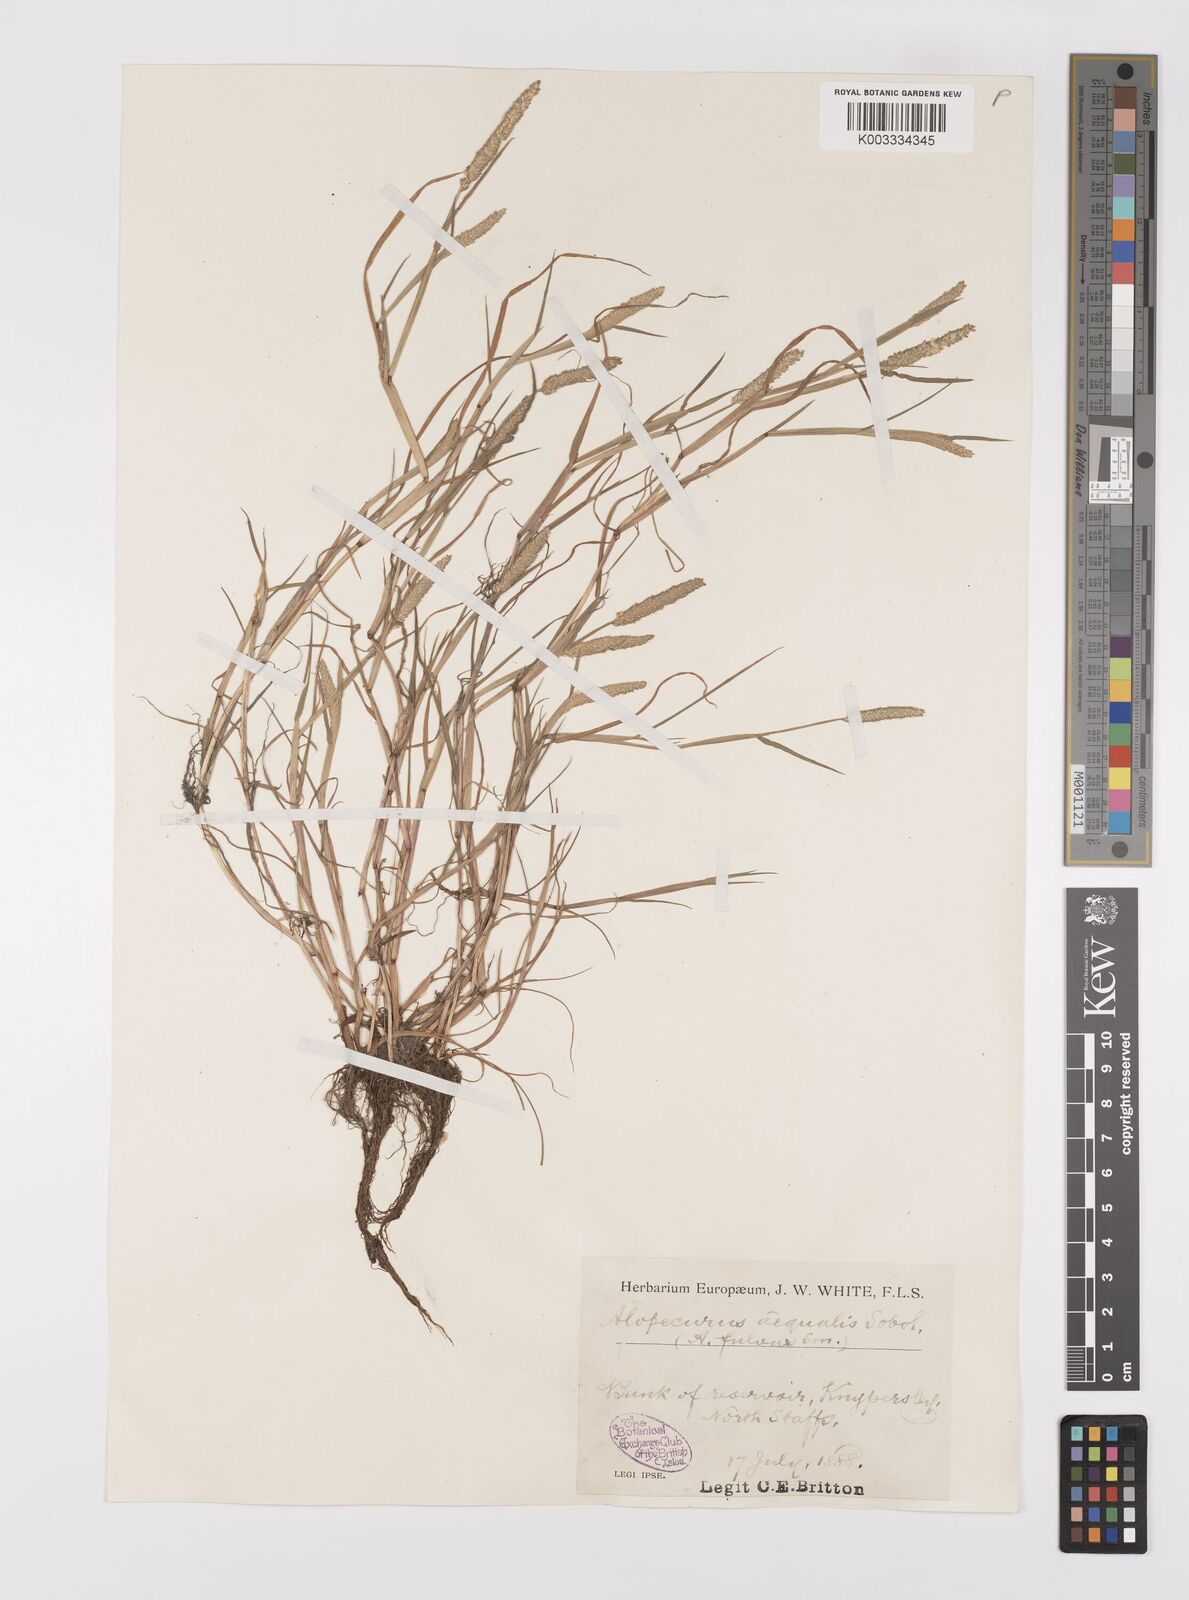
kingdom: Plantae
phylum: Tracheophyta
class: Liliopsida
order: Poales
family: Poaceae
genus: Alopecurus
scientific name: Alopecurus aequalis
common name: Orange foxtail
